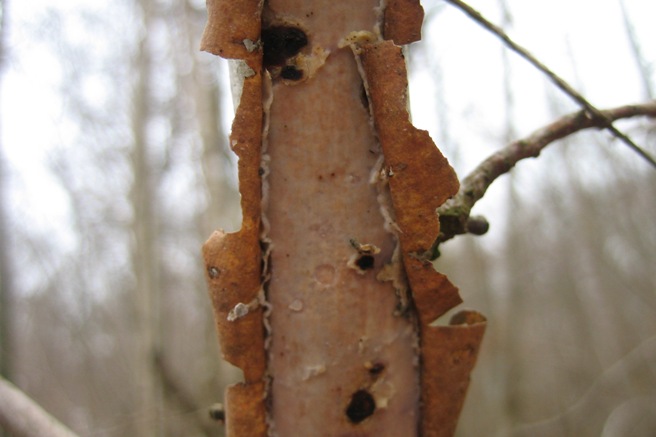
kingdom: Fungi
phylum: Basidiomycota
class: Agaricomycetes
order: Corticiales
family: Vuilleminiaceae
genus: Vuilleminia
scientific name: Vuilleminia coryli
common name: hassel-barksprænger
